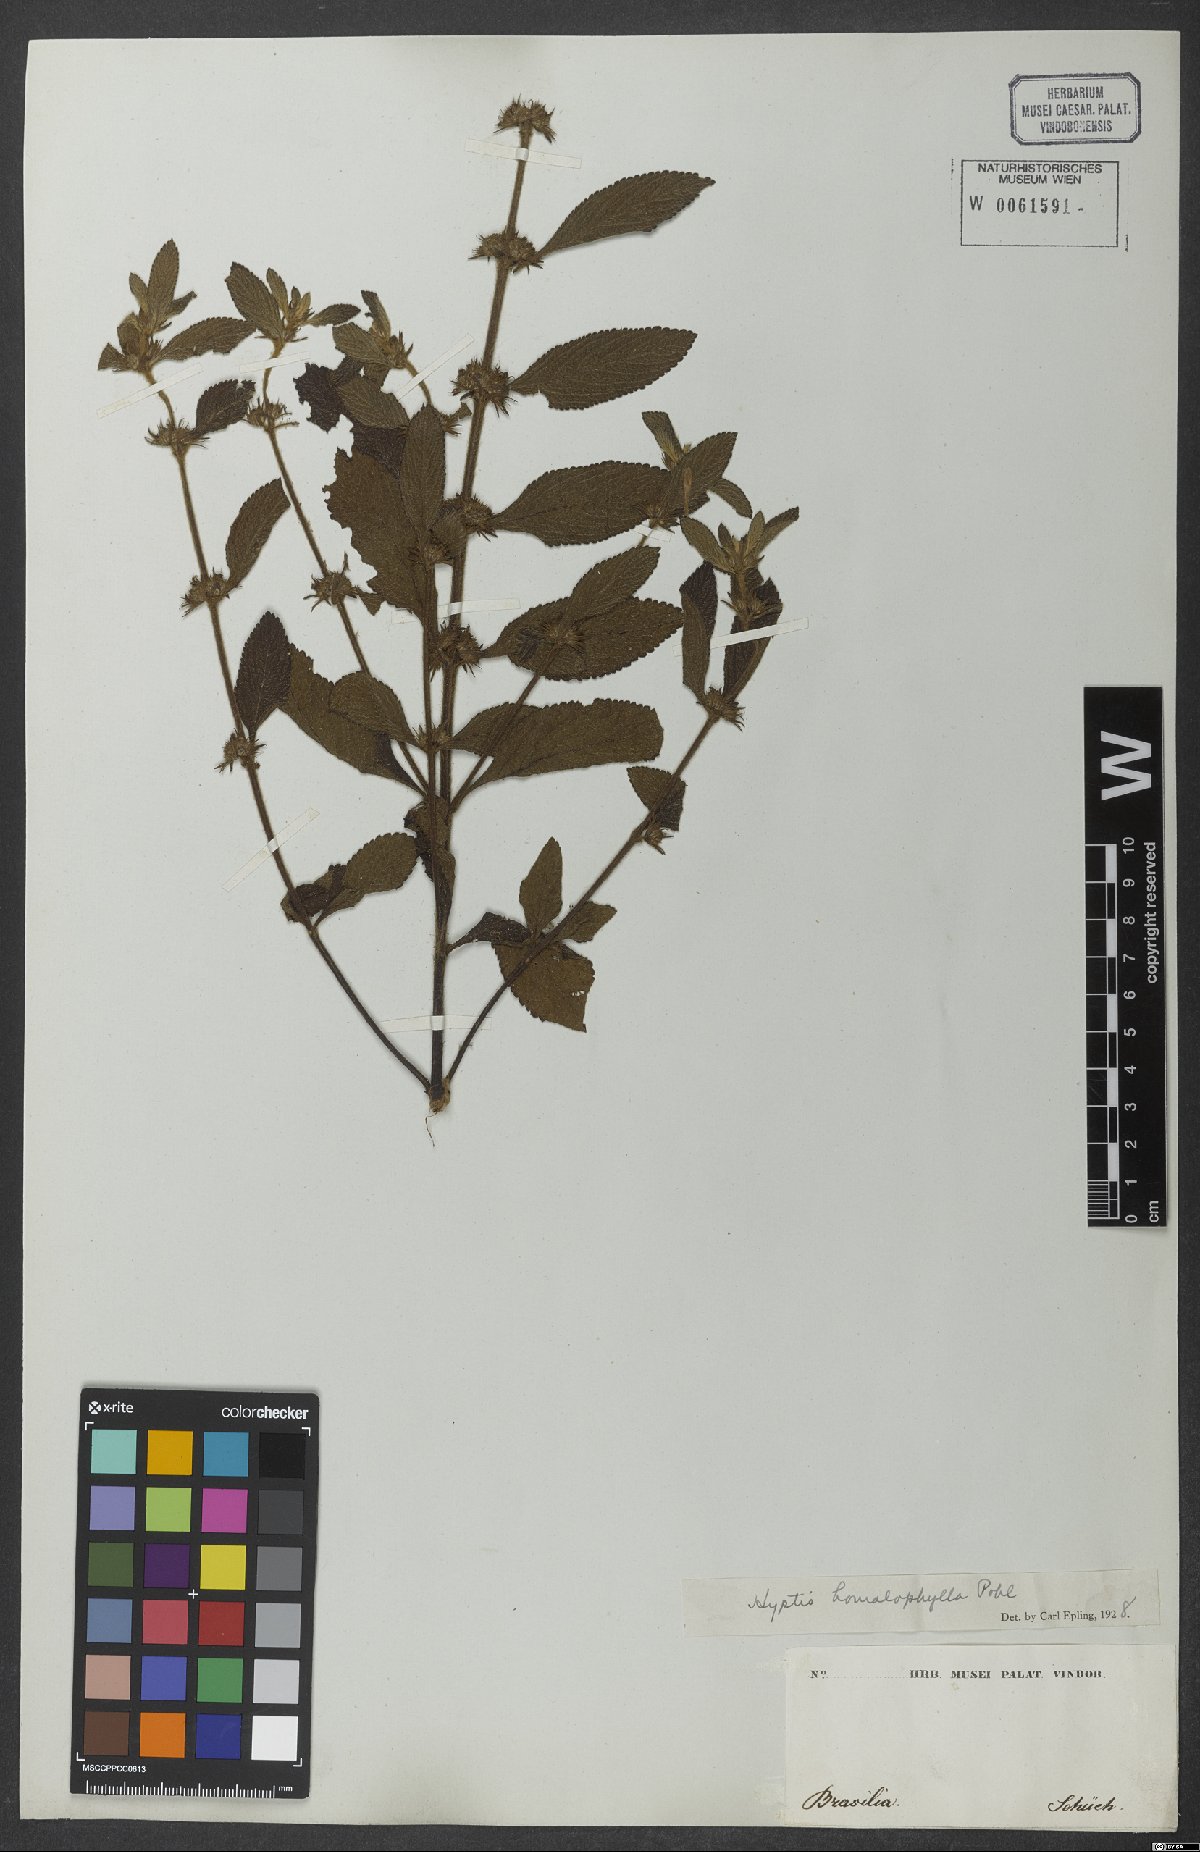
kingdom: Plantae
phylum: Tracheophyta
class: Magnoliopsida
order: Lamiales
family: Lamiaceae
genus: Hyptis
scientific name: Hyptis homalophylla
